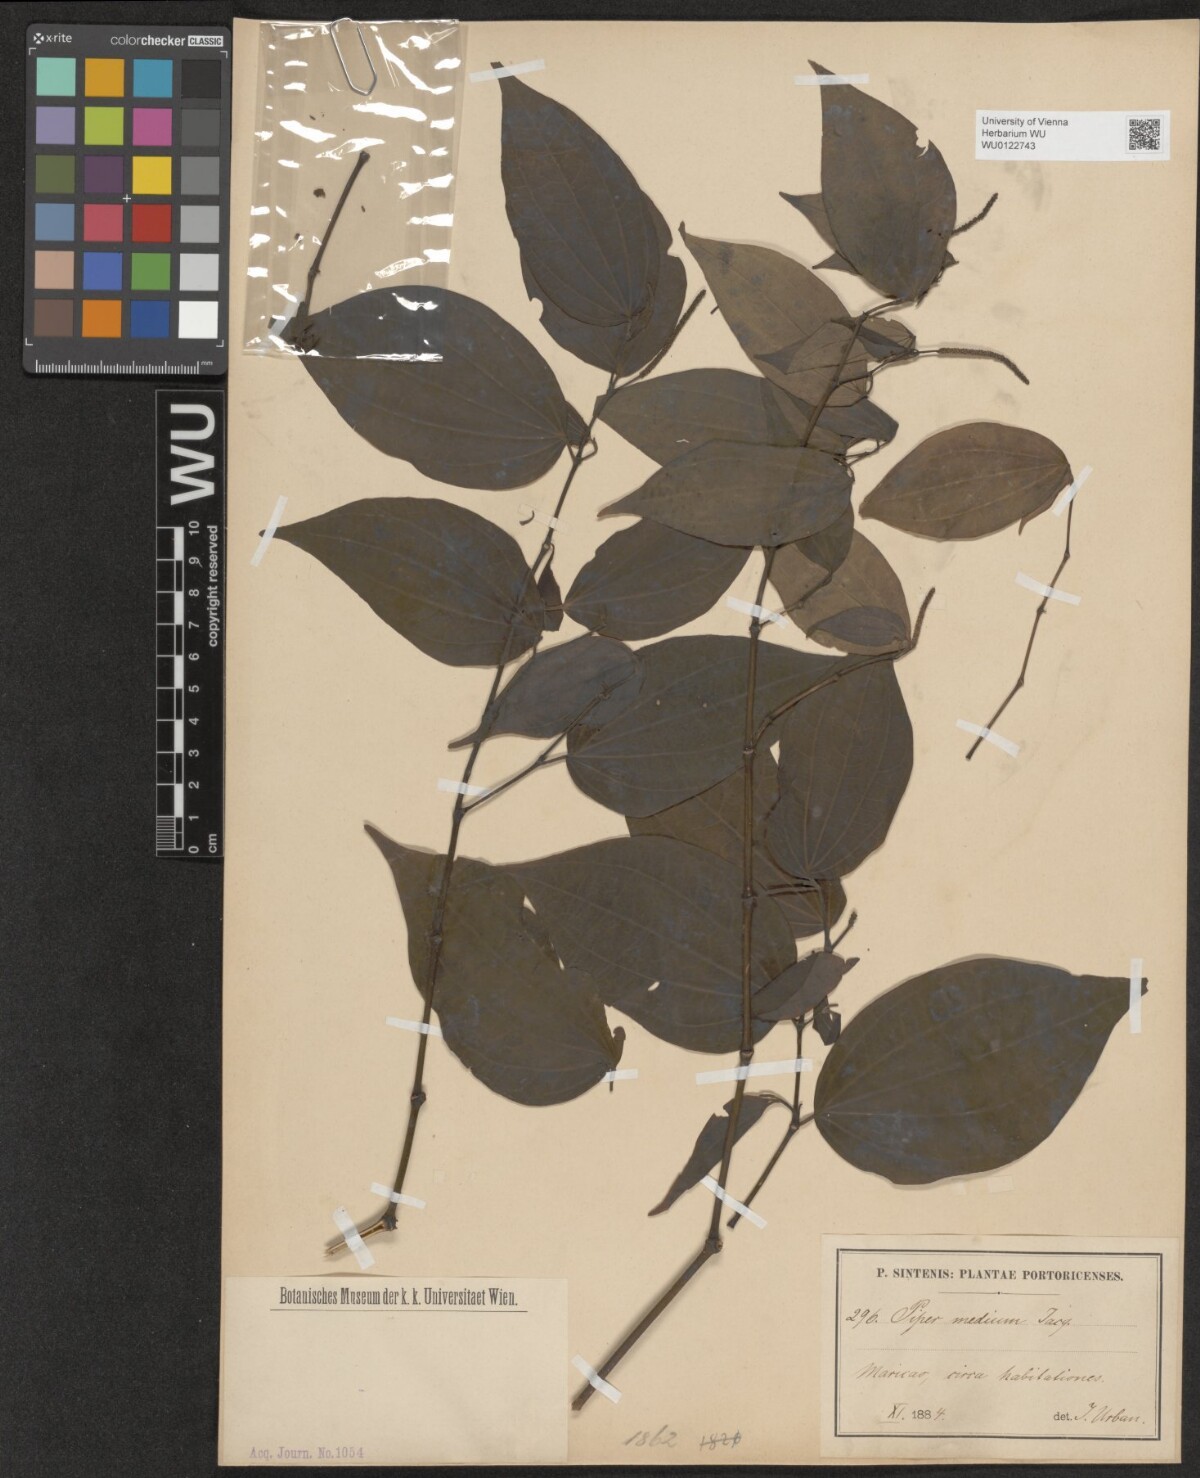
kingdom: Plantae
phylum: Tracheophyta
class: Magnoliopsida
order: Piperales
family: Piperaceae
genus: Piper
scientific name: Piper amalago
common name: Pepper-elder
